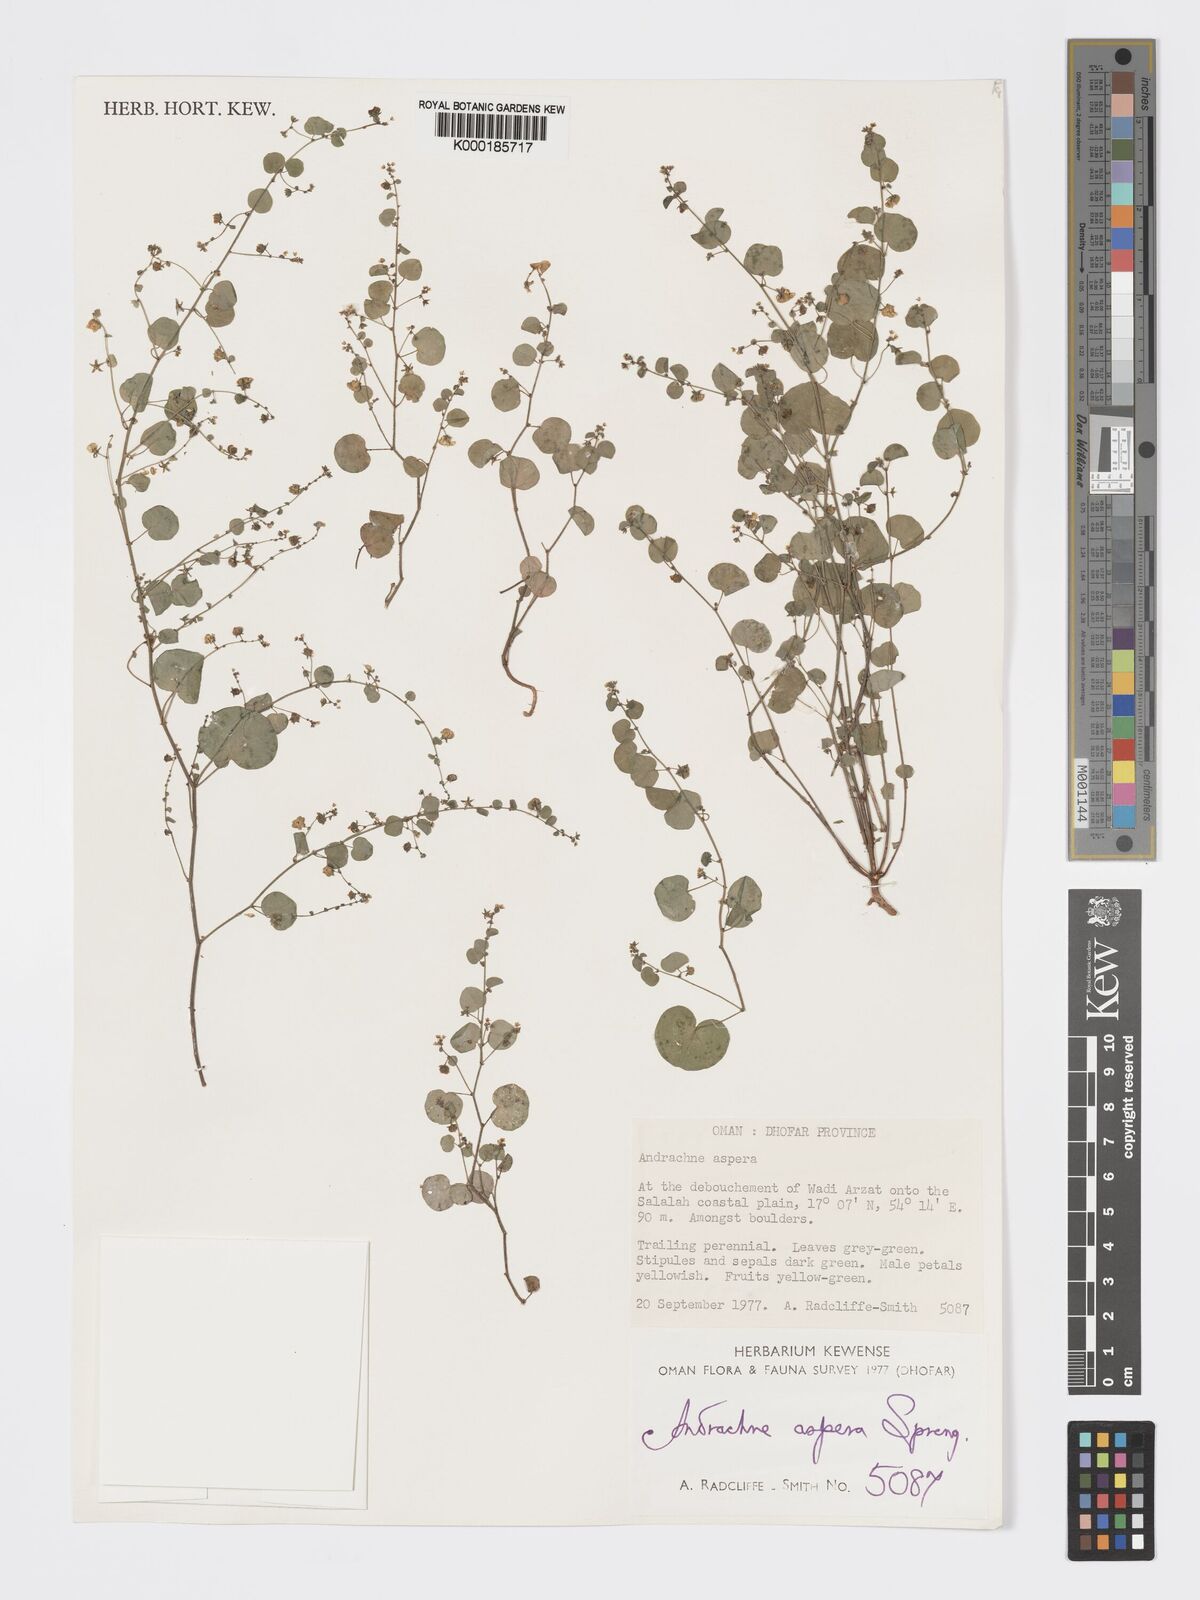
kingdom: Plantae
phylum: Tracheophyta
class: Magnoliopsida
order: Malpighiales
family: Phyllanthaceae
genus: Andrachne
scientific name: Andrachne aspera
